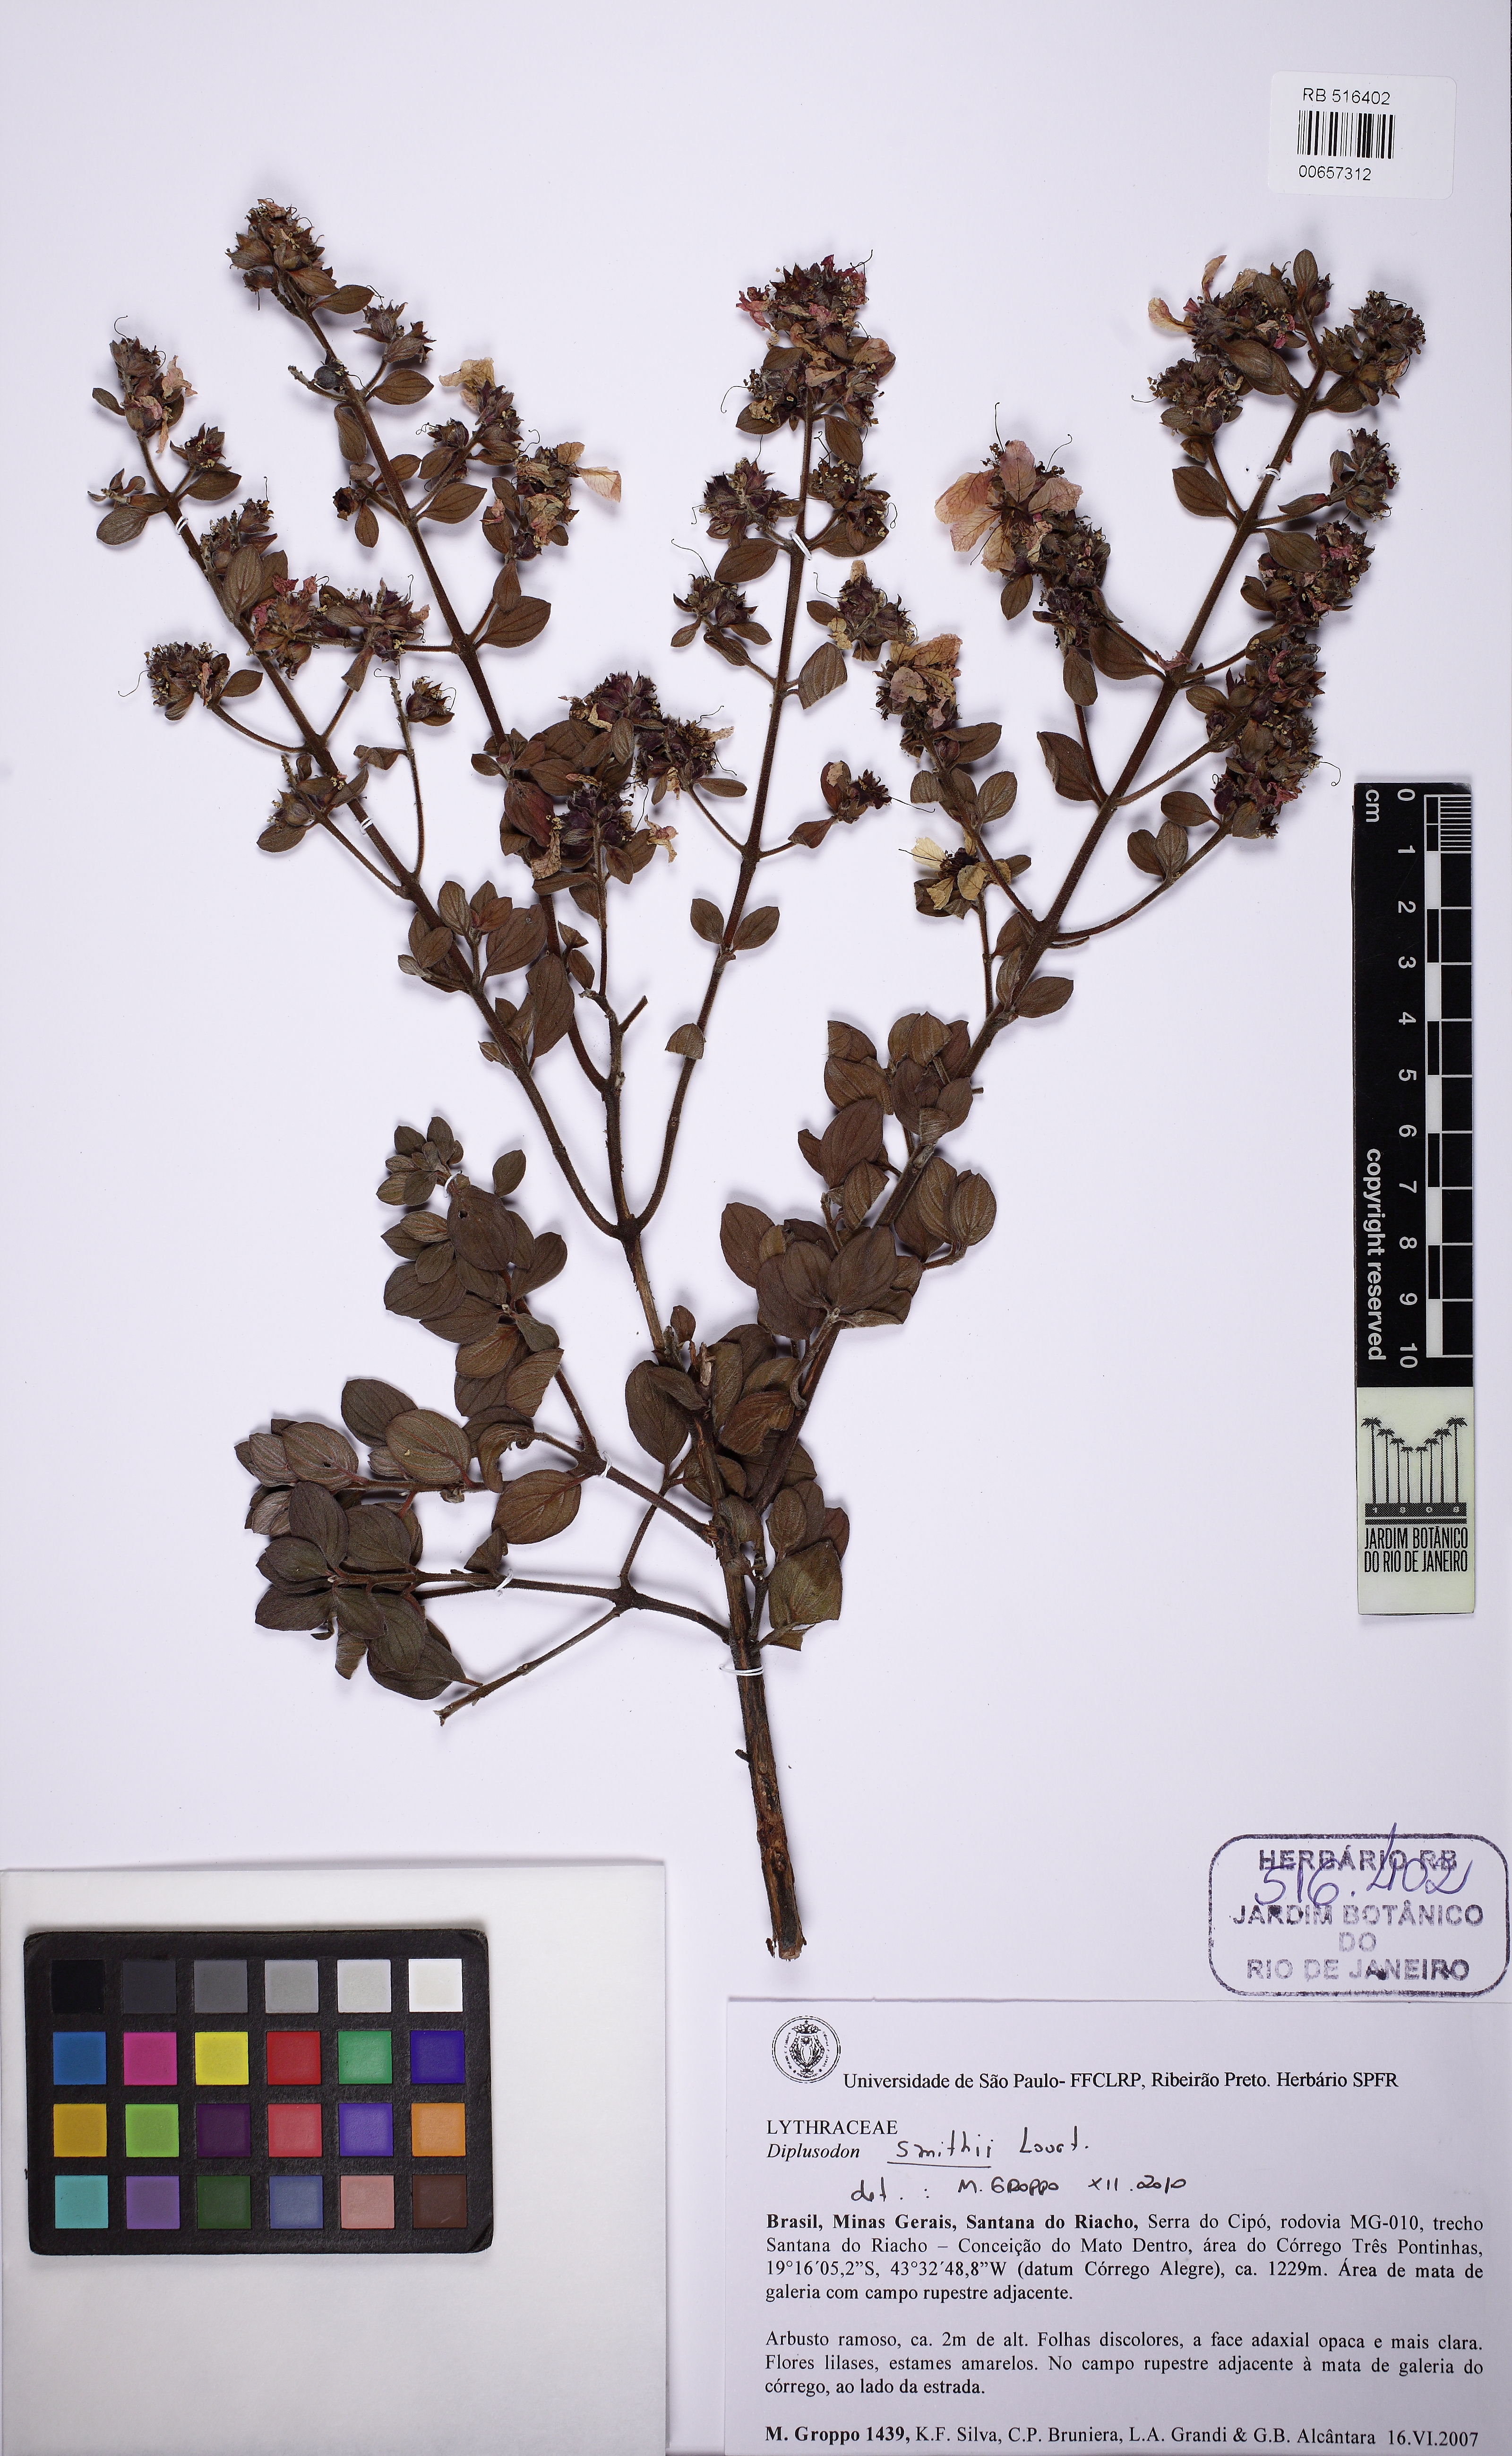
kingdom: Plantae
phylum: Tracheophyta
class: Magnoliopsida
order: Myrtales
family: Lythraceae
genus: Diplusodon
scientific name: Diplusodon hirsutus
